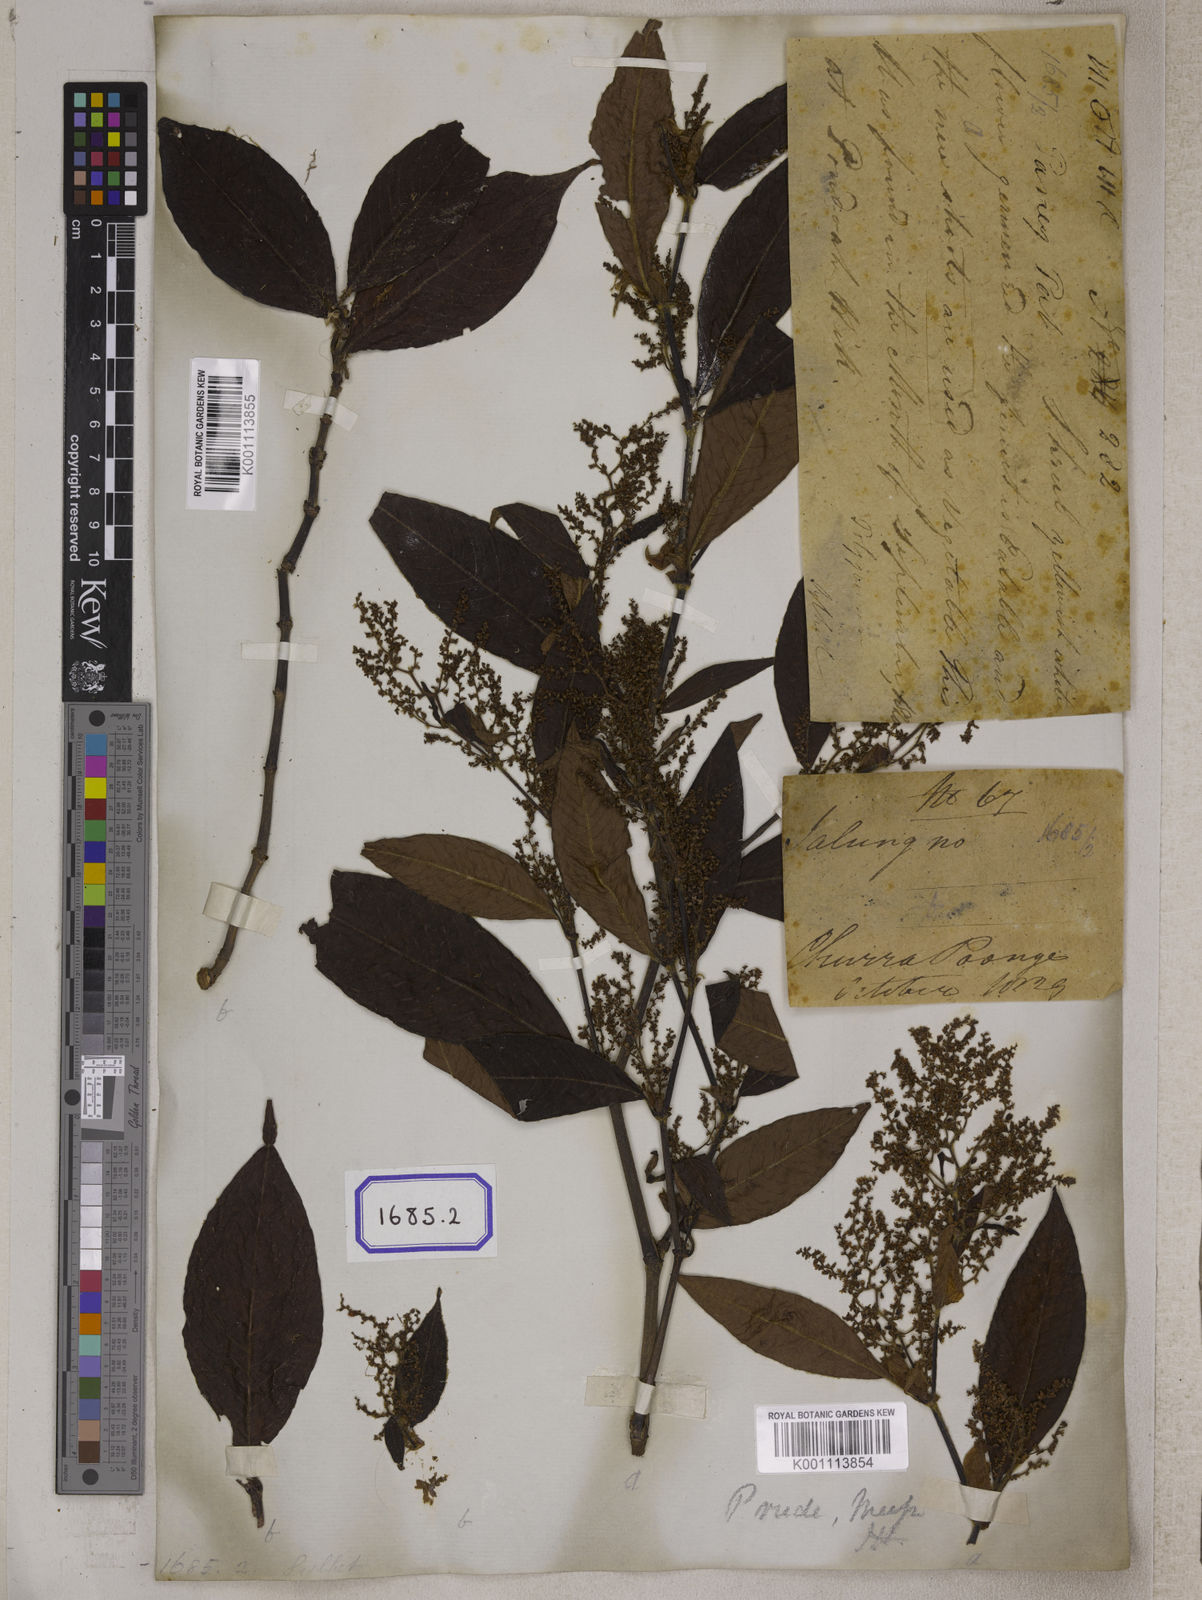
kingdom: Plantae
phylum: Tracheophyta
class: Magnoliopsida
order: Caryophyllales
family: Polygonaceae
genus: Koenigia
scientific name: Koenigia mollis
